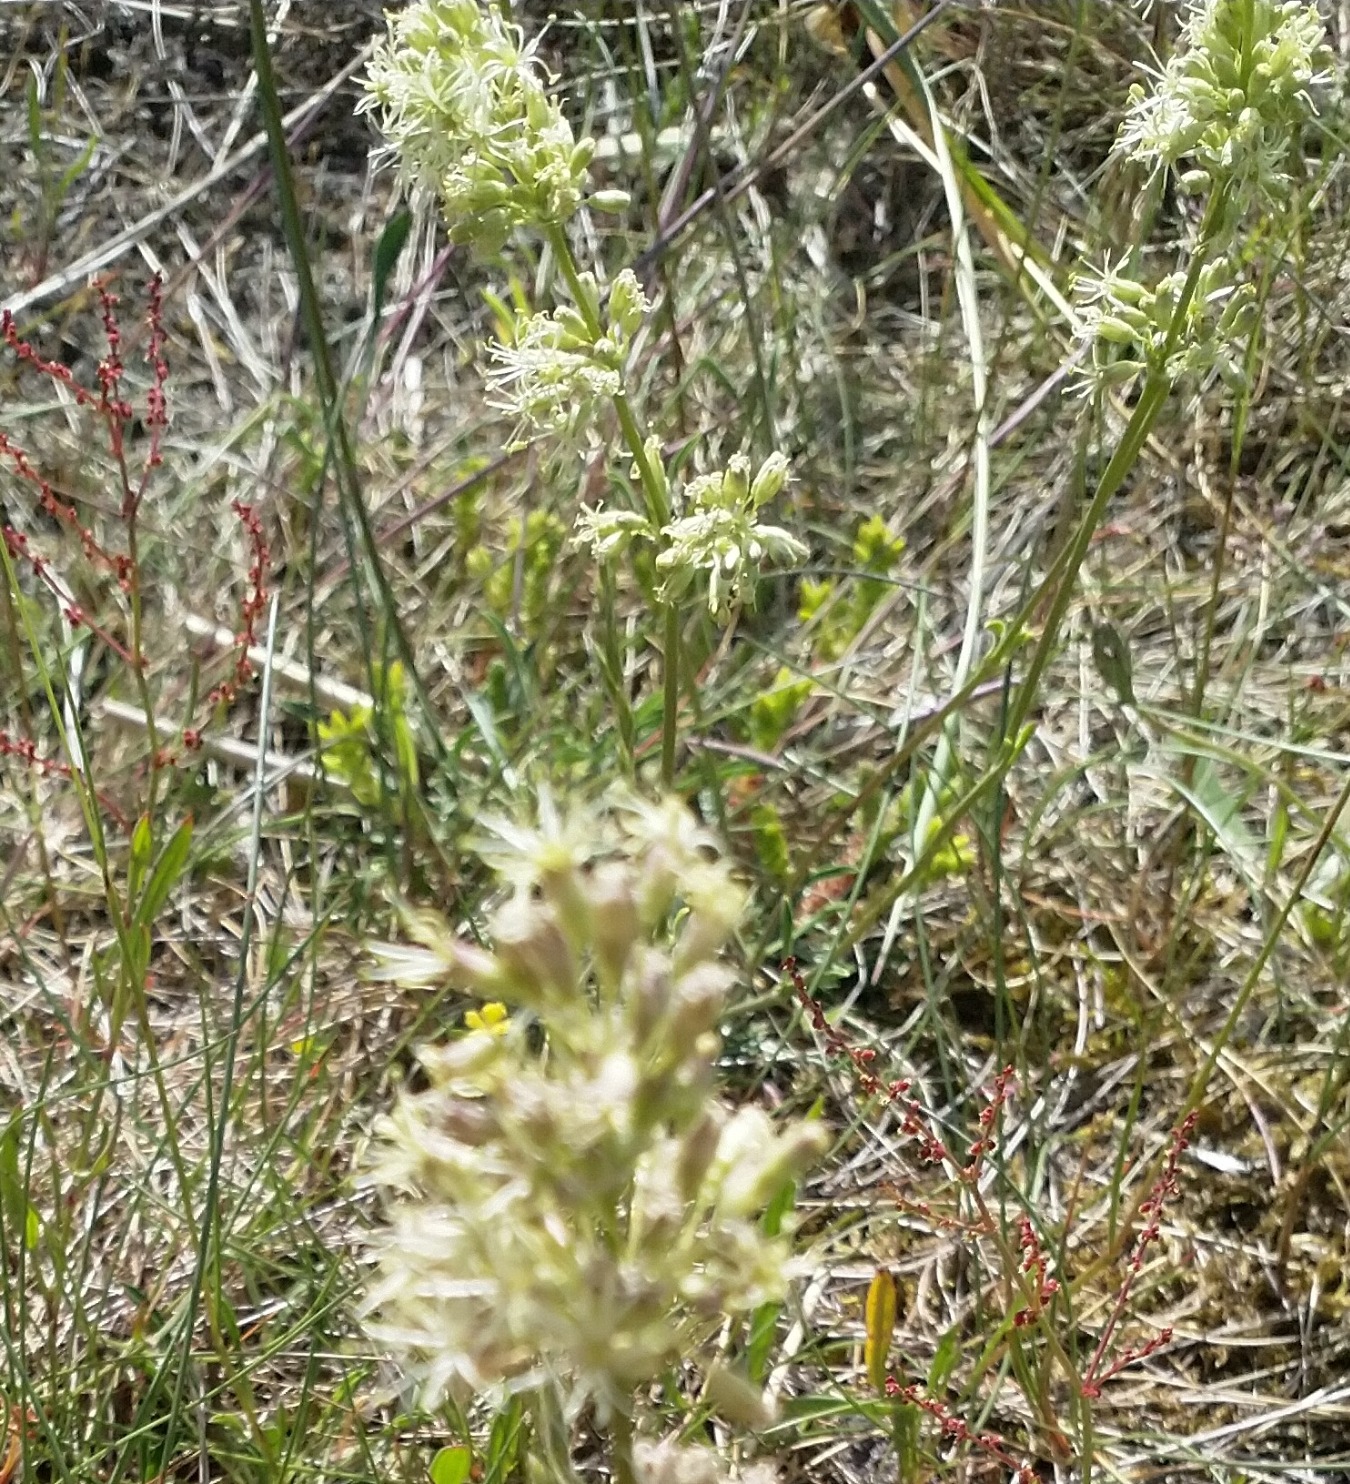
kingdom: Plantae
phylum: Tracheophyta
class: Magnoliopsida
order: Caryophyllales
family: Caryophyllaceae
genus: Silene
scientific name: Silene otites
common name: Klit-limurt
